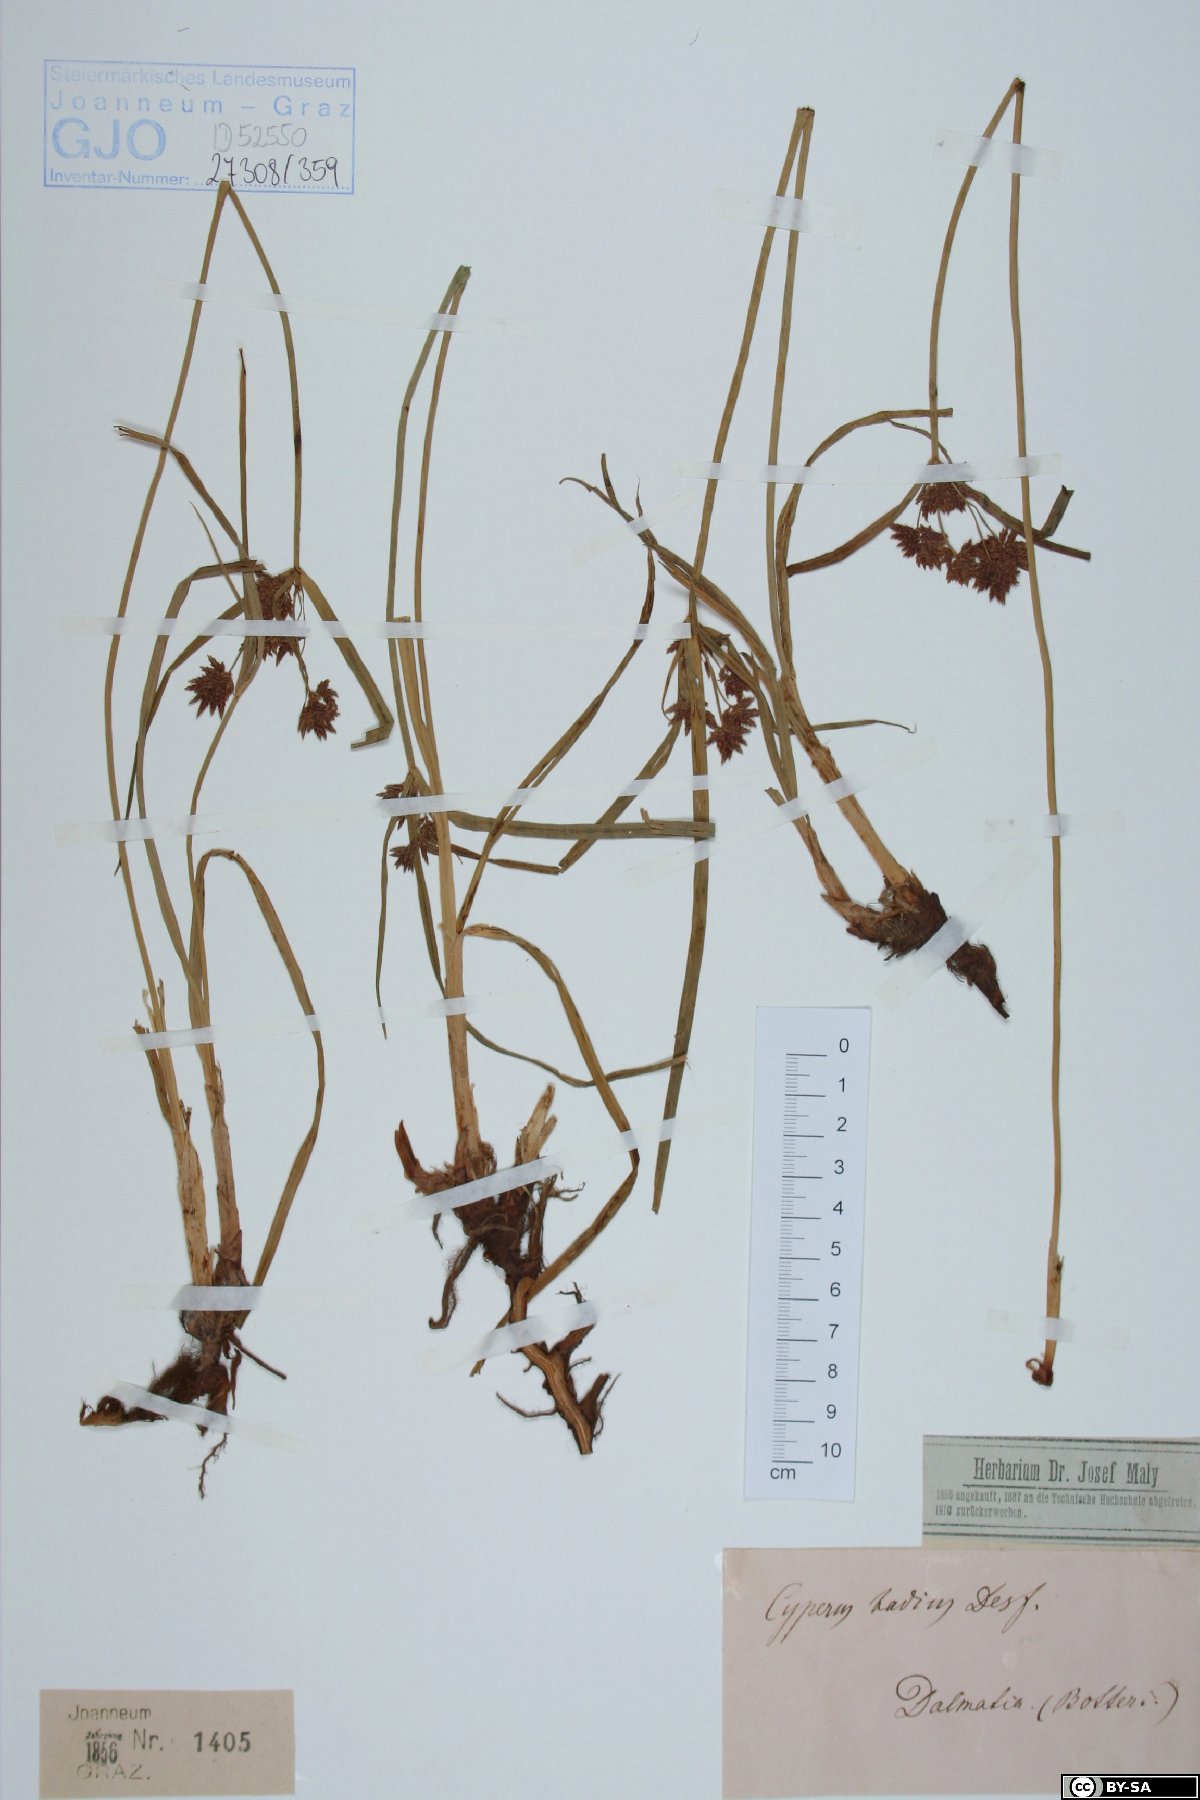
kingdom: Plantae
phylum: Tracheophyta
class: Liliopsida
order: Poales
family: Cyperaceae
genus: Cyperus
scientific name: Cyperus longus
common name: Galingale
